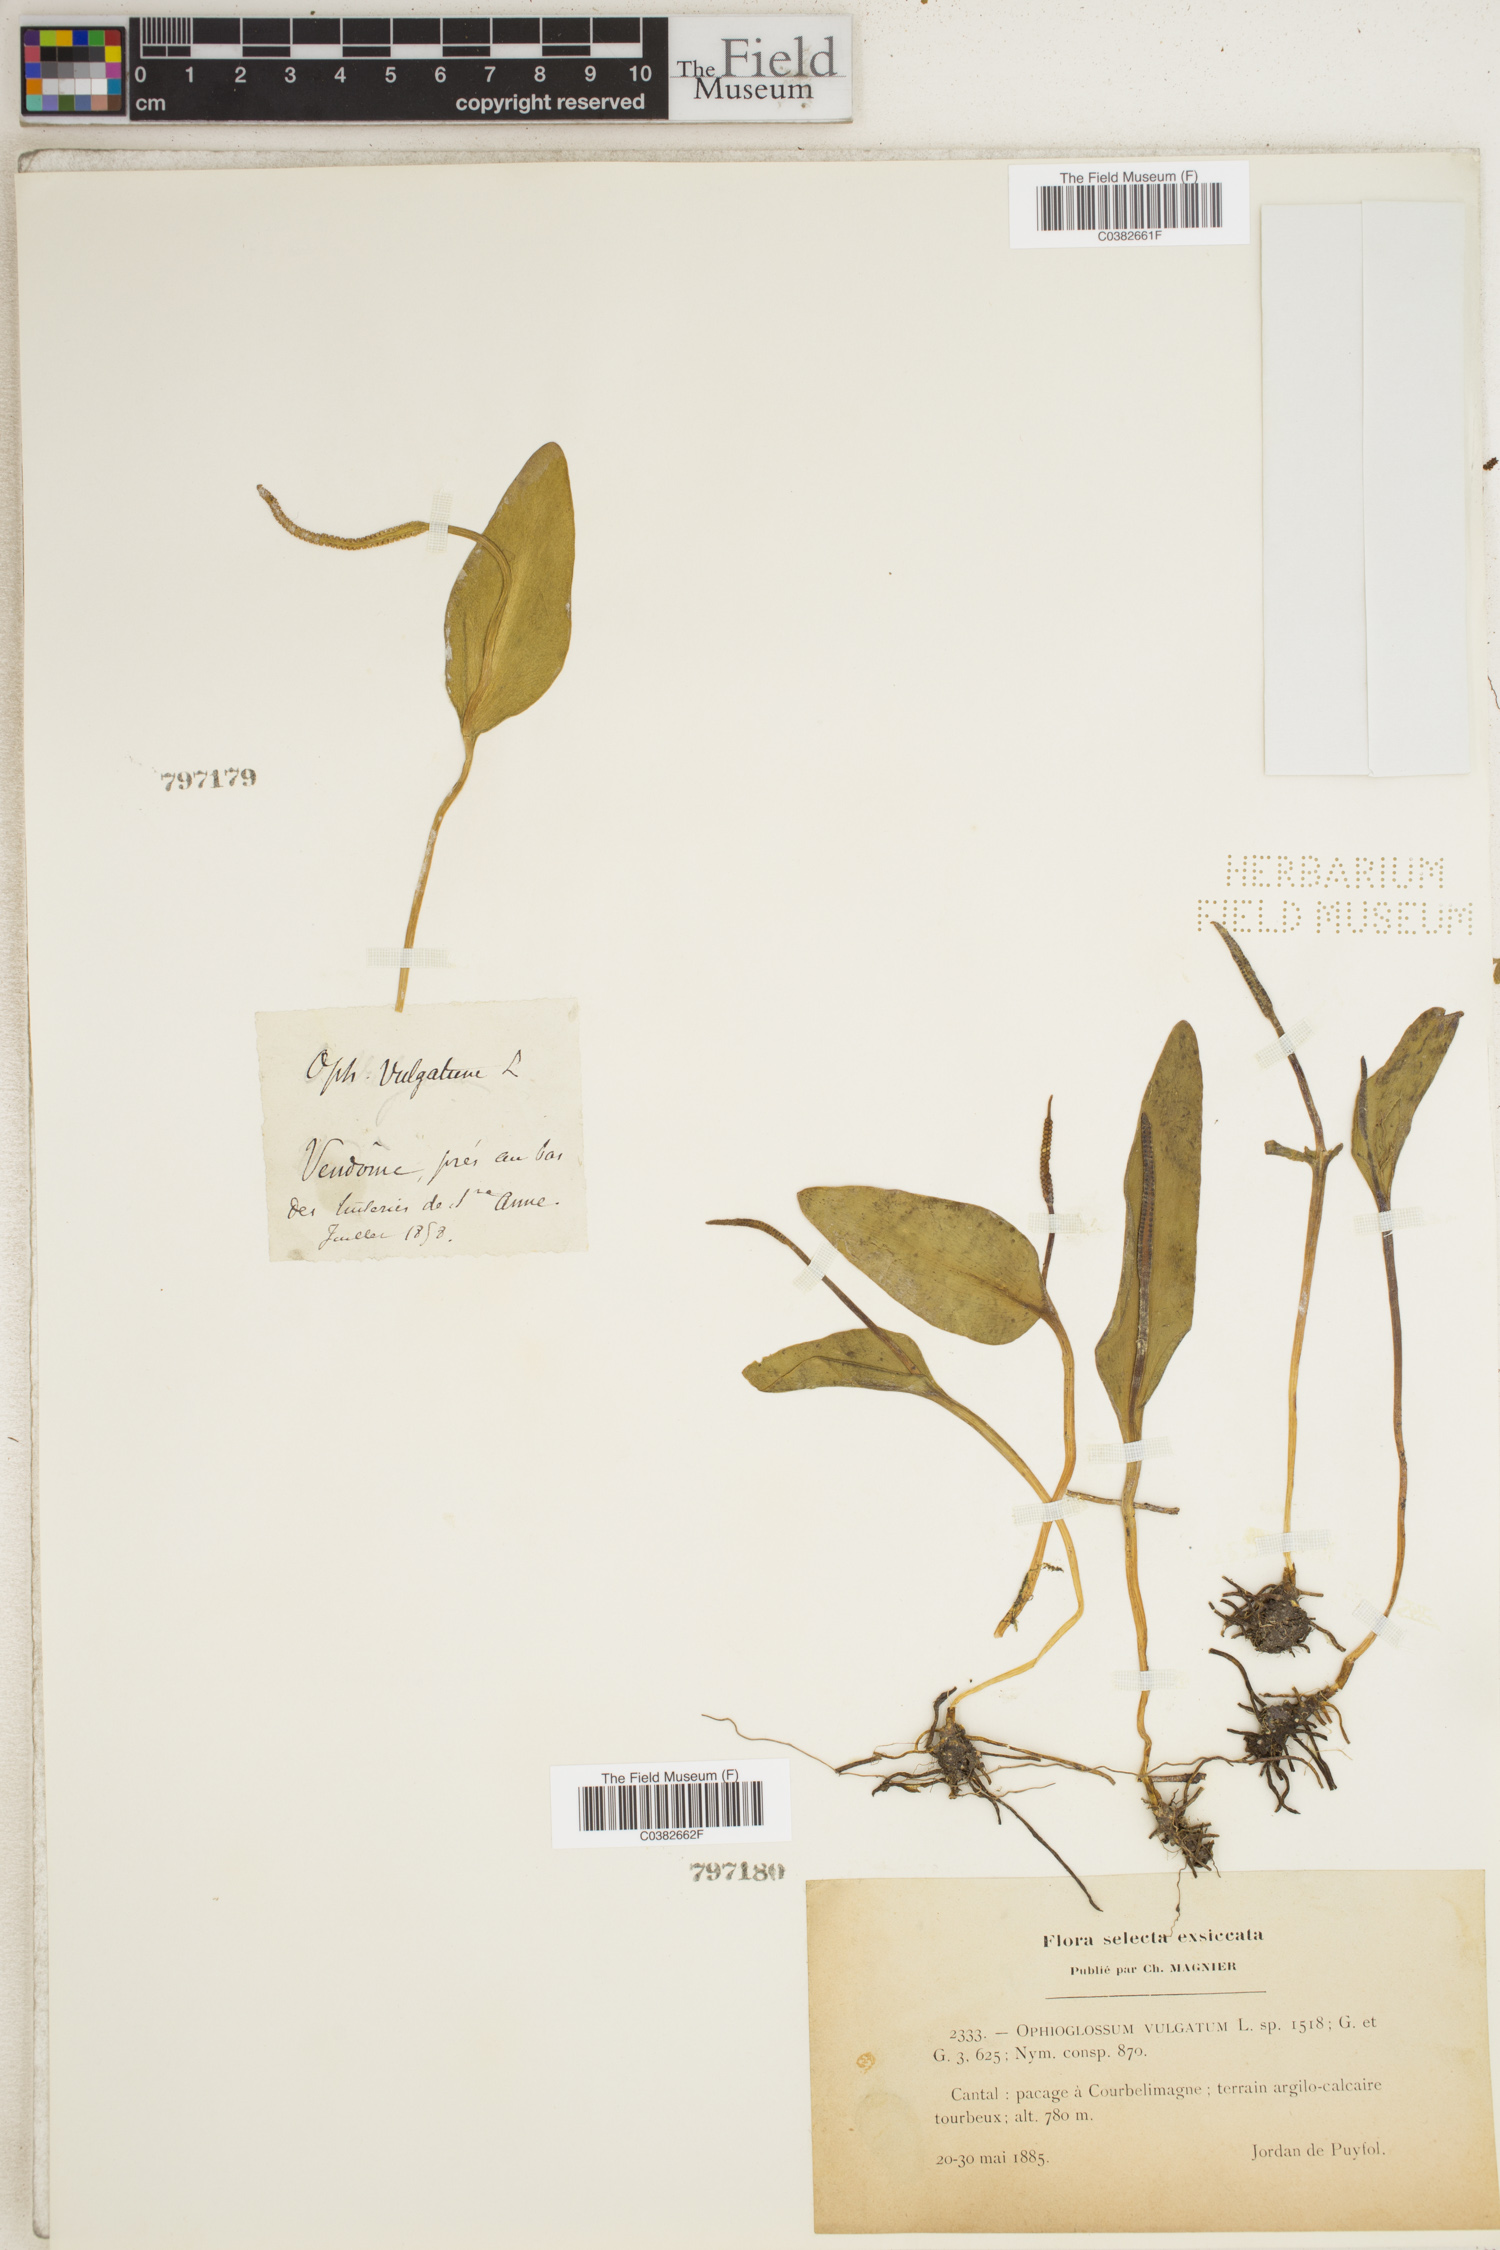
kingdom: Plantae
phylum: Tracheophyta
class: Polypodiopsida
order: Ophioglossales
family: Ophioglossaceae
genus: Ophioglossum
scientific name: Ophioglossum vulgatum
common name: Adder's-tongue
